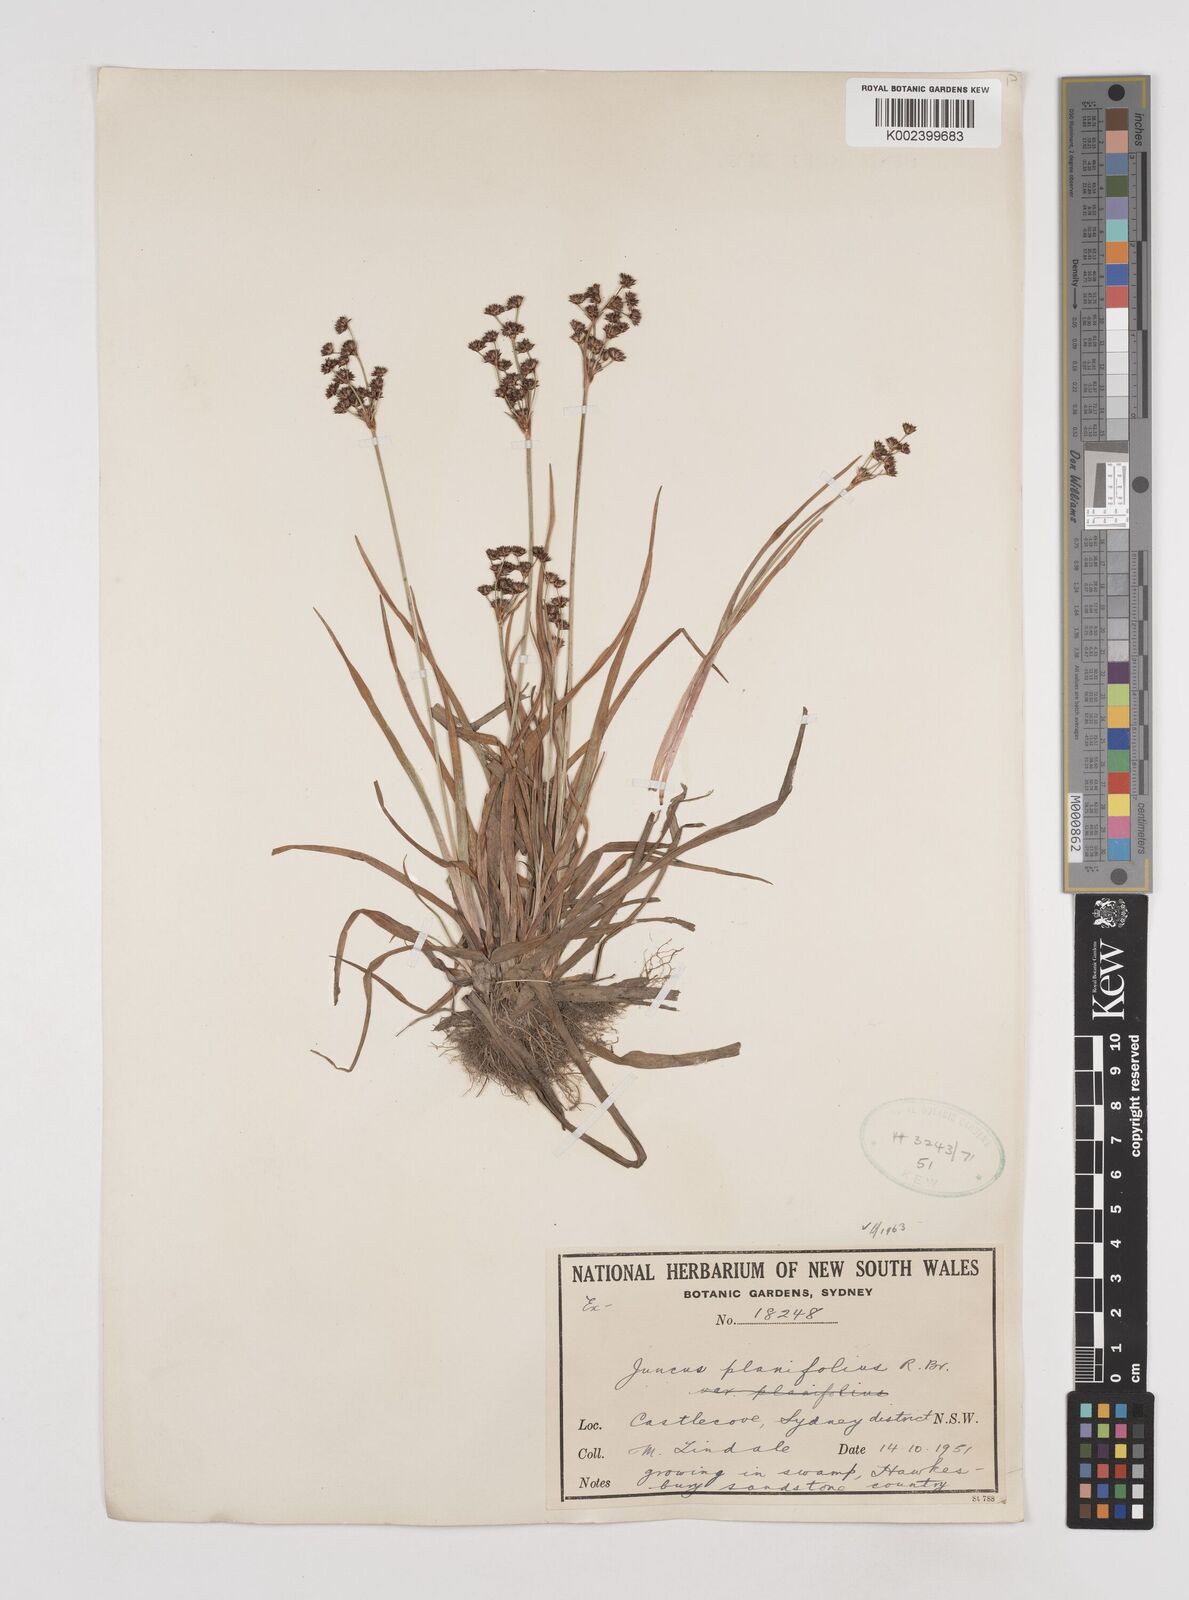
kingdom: Plantae
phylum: Tracheophyta
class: Liliopsida
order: Poales
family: Juncaceae
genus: Juncus
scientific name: Juncus planifolius
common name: Broadleaf rush
